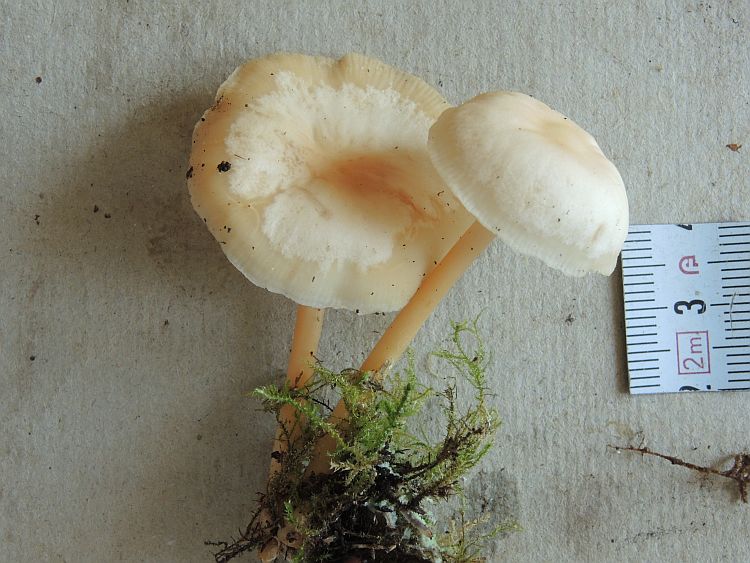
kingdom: Fungi
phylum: Basidiomycota
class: Agaricomycetes
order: Agaricales
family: Omphalotaceae
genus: Gymnopus
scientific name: Gymnopus aquosus
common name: bleg fladhat
